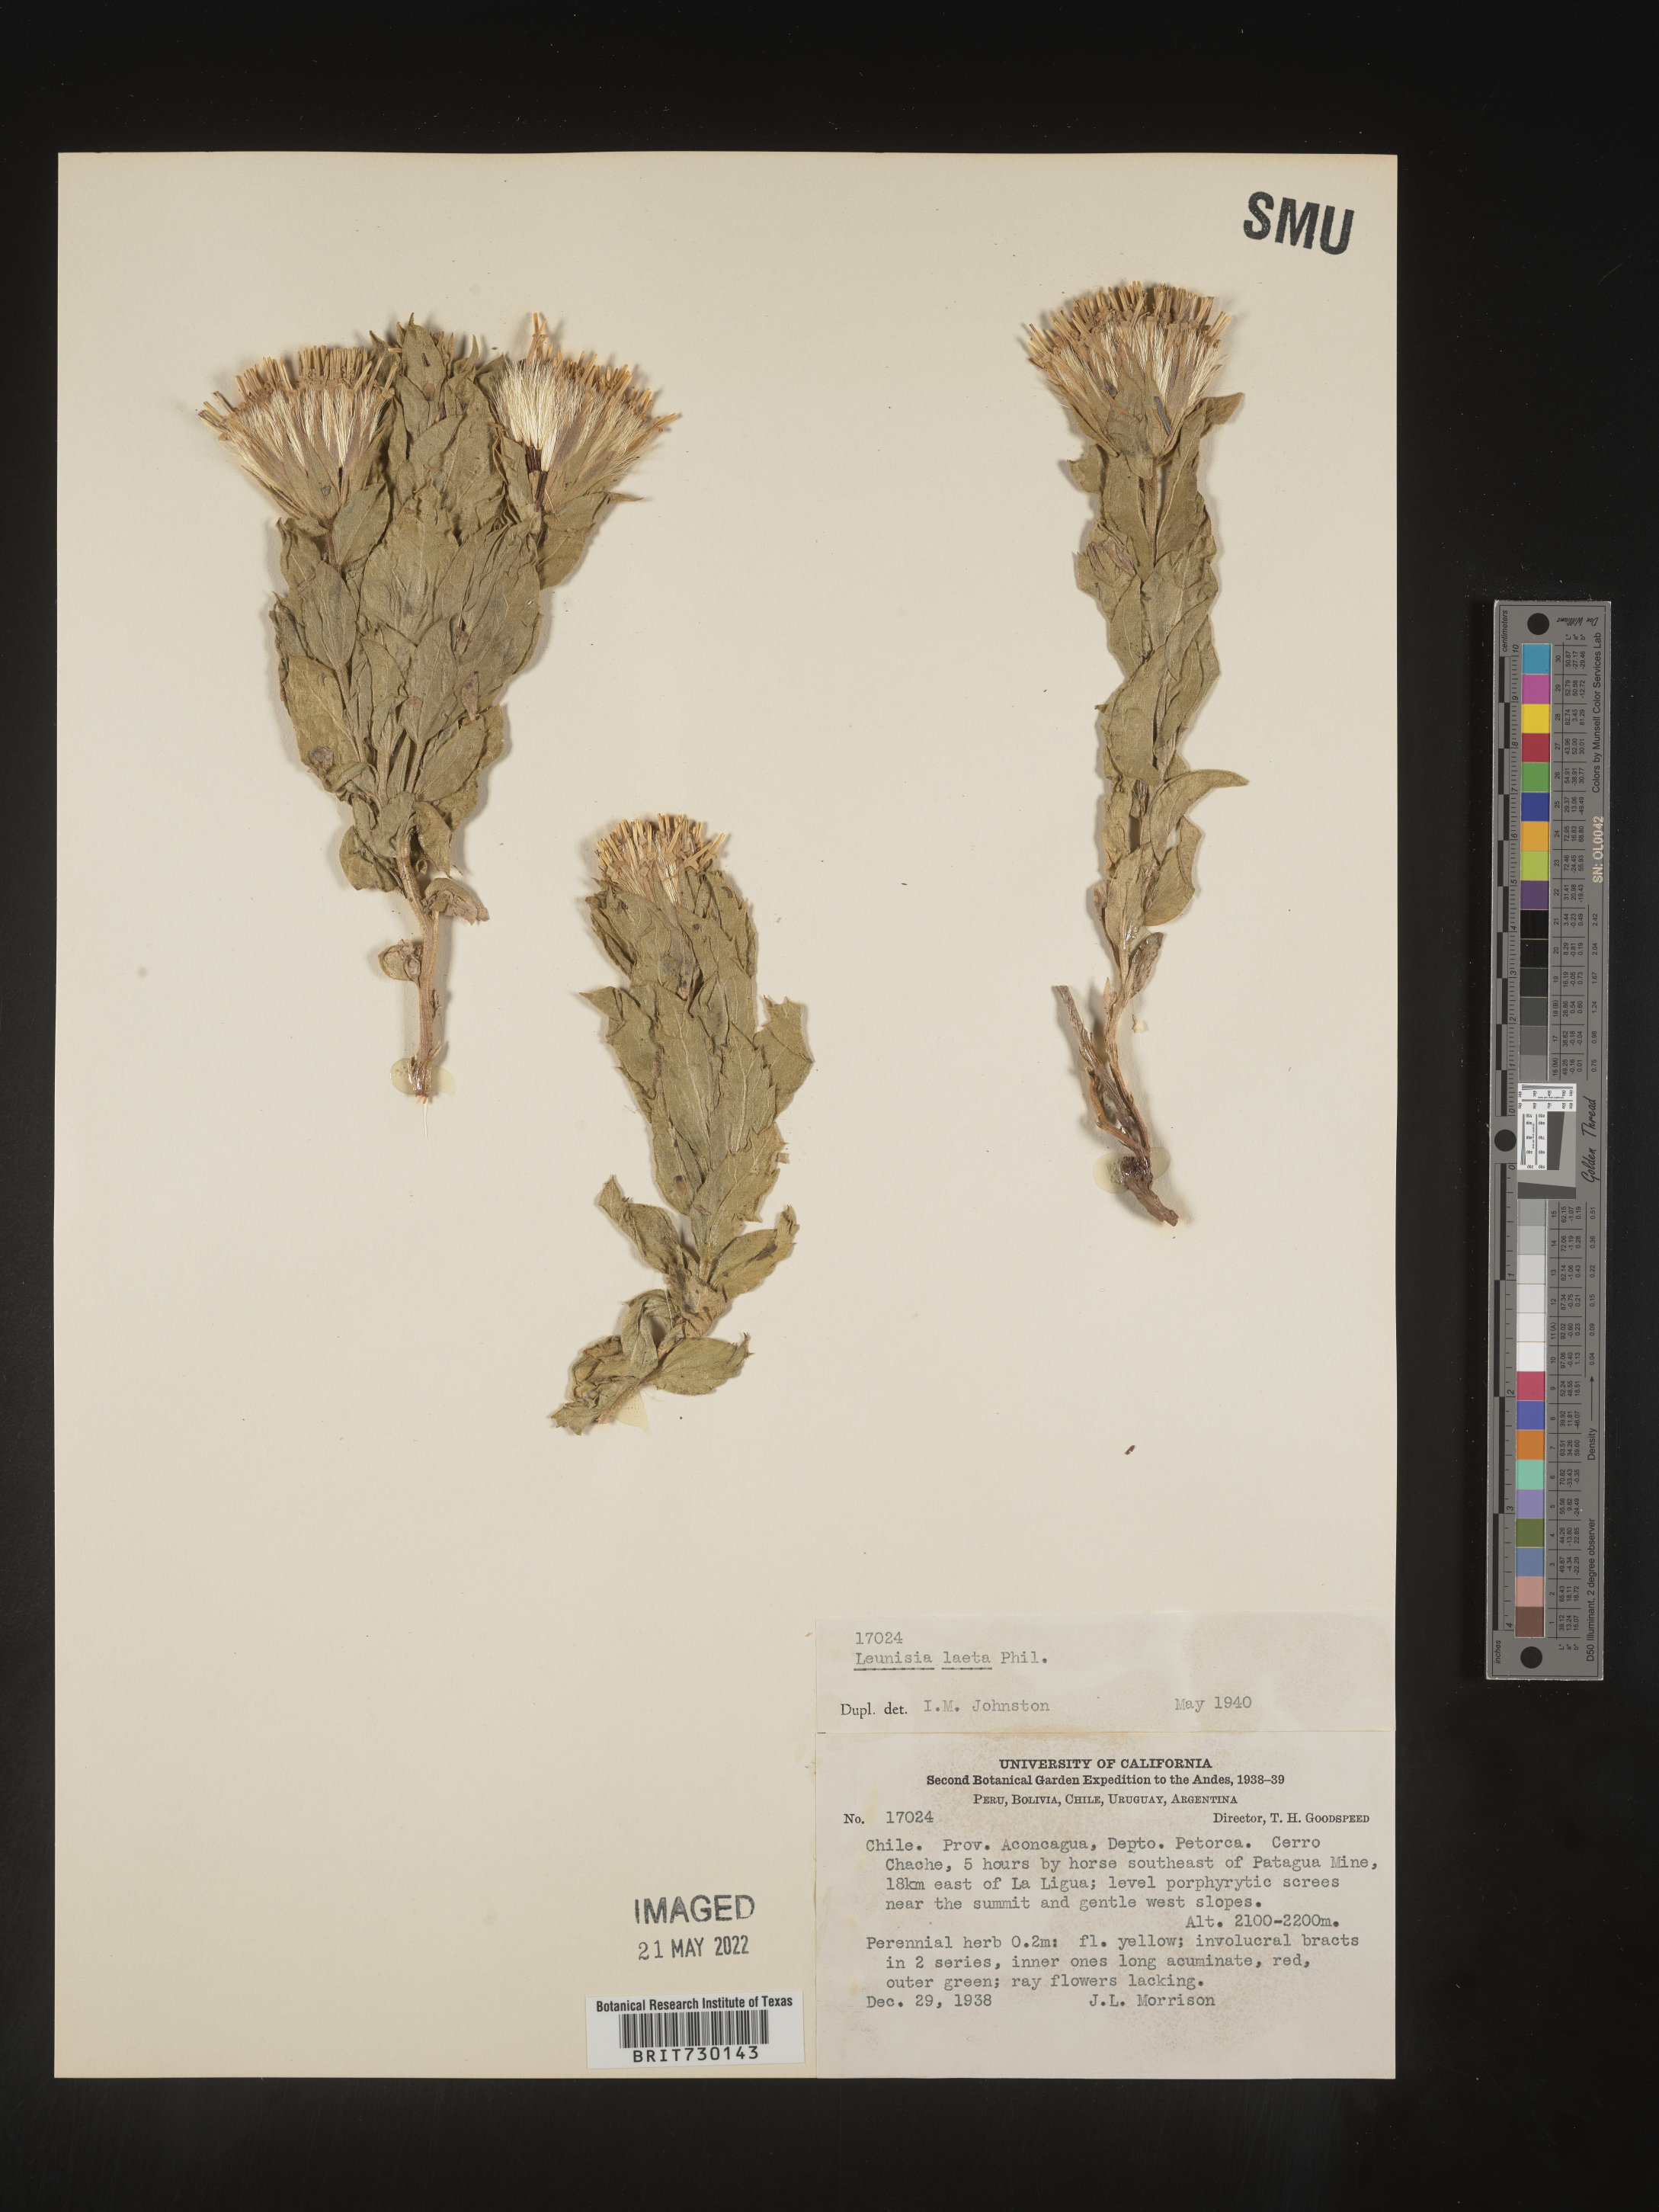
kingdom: Plantae
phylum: Tracheophyta
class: Magnoliopsida
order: Asterales
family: Asteraceae
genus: Leunisia
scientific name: Leunisia
